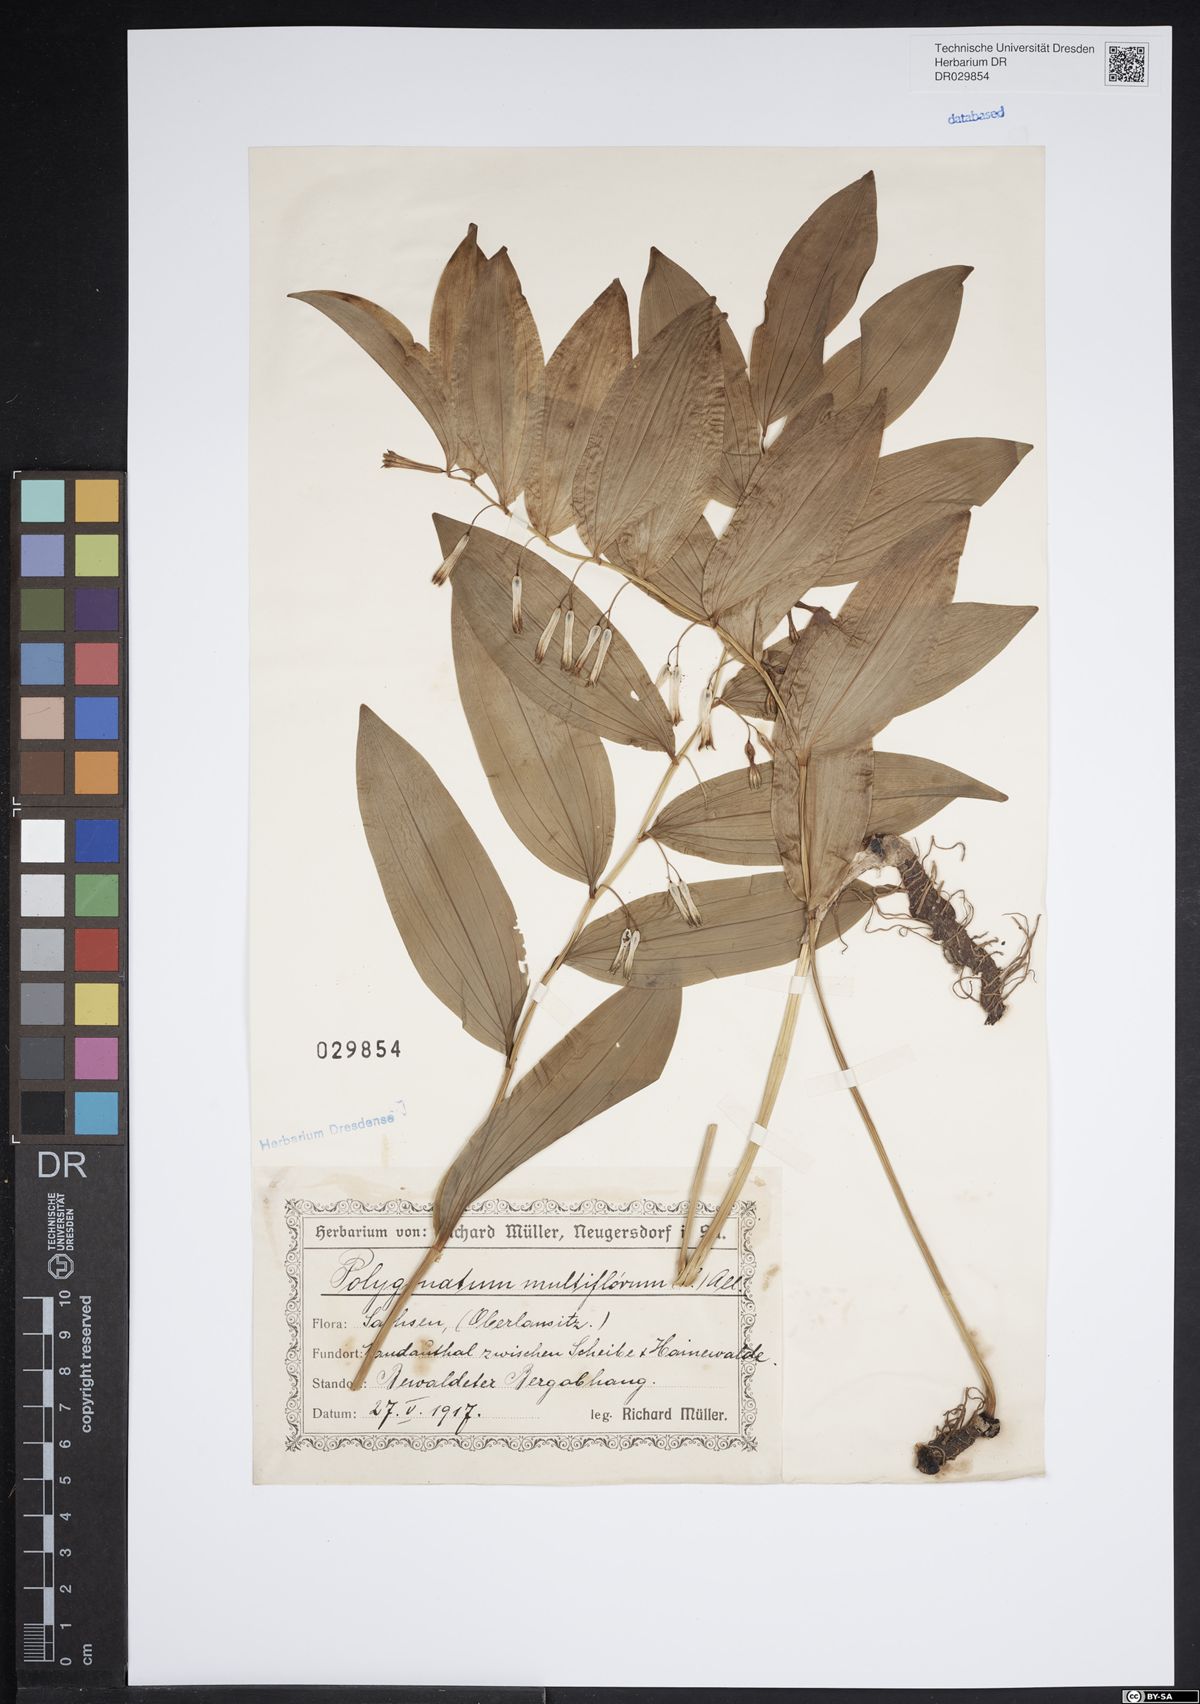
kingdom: Plantae
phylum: Tracheophyta
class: Liliopsida
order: Asparagales
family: Asparagaceae
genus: Polygonatum
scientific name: Polygonatum odoratum
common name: Angular solomon's-seal
